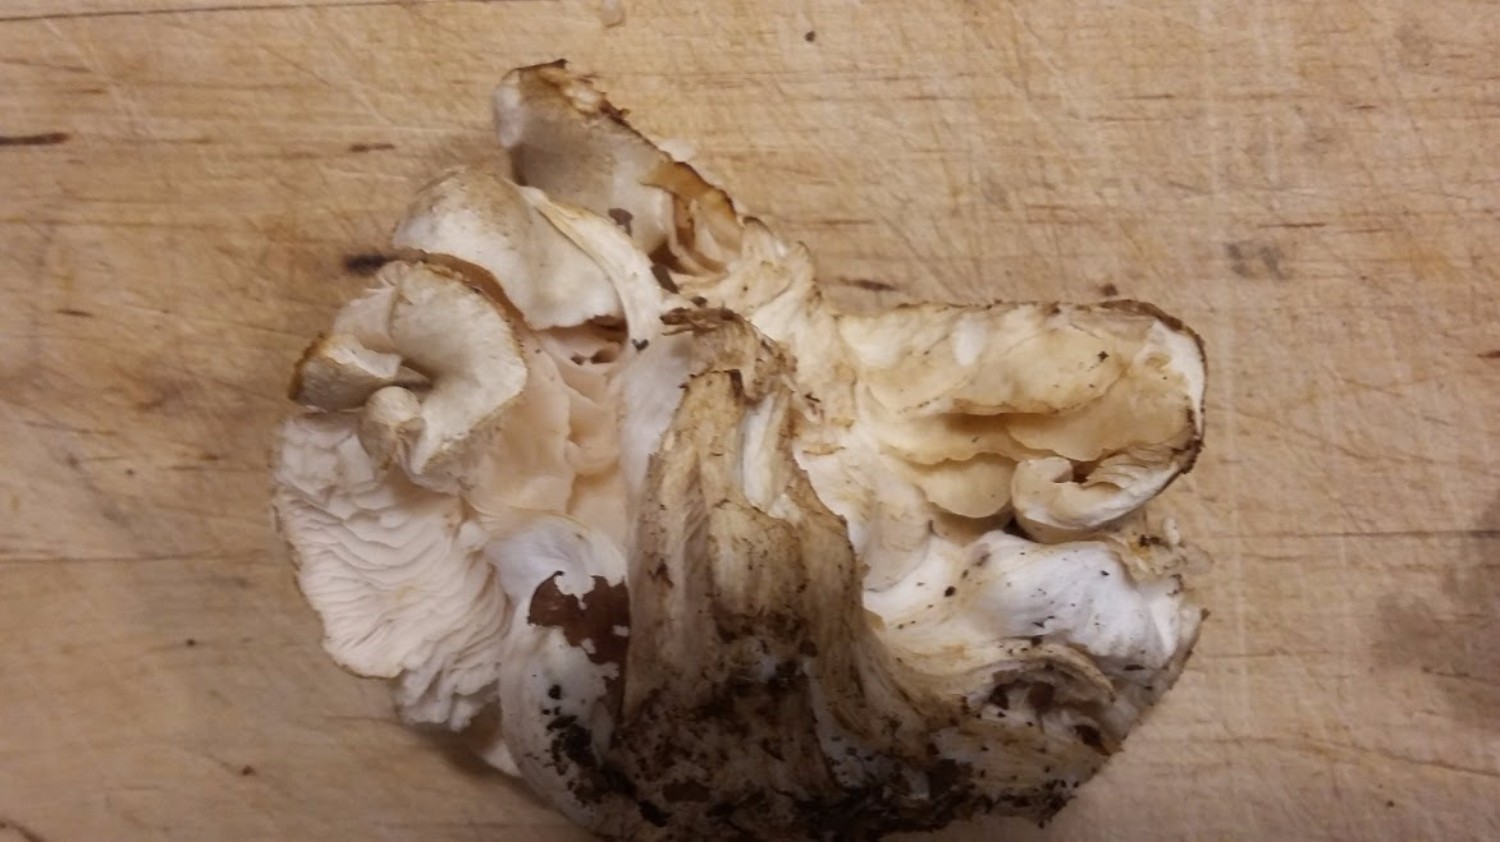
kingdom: Fungi
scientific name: Fungi
